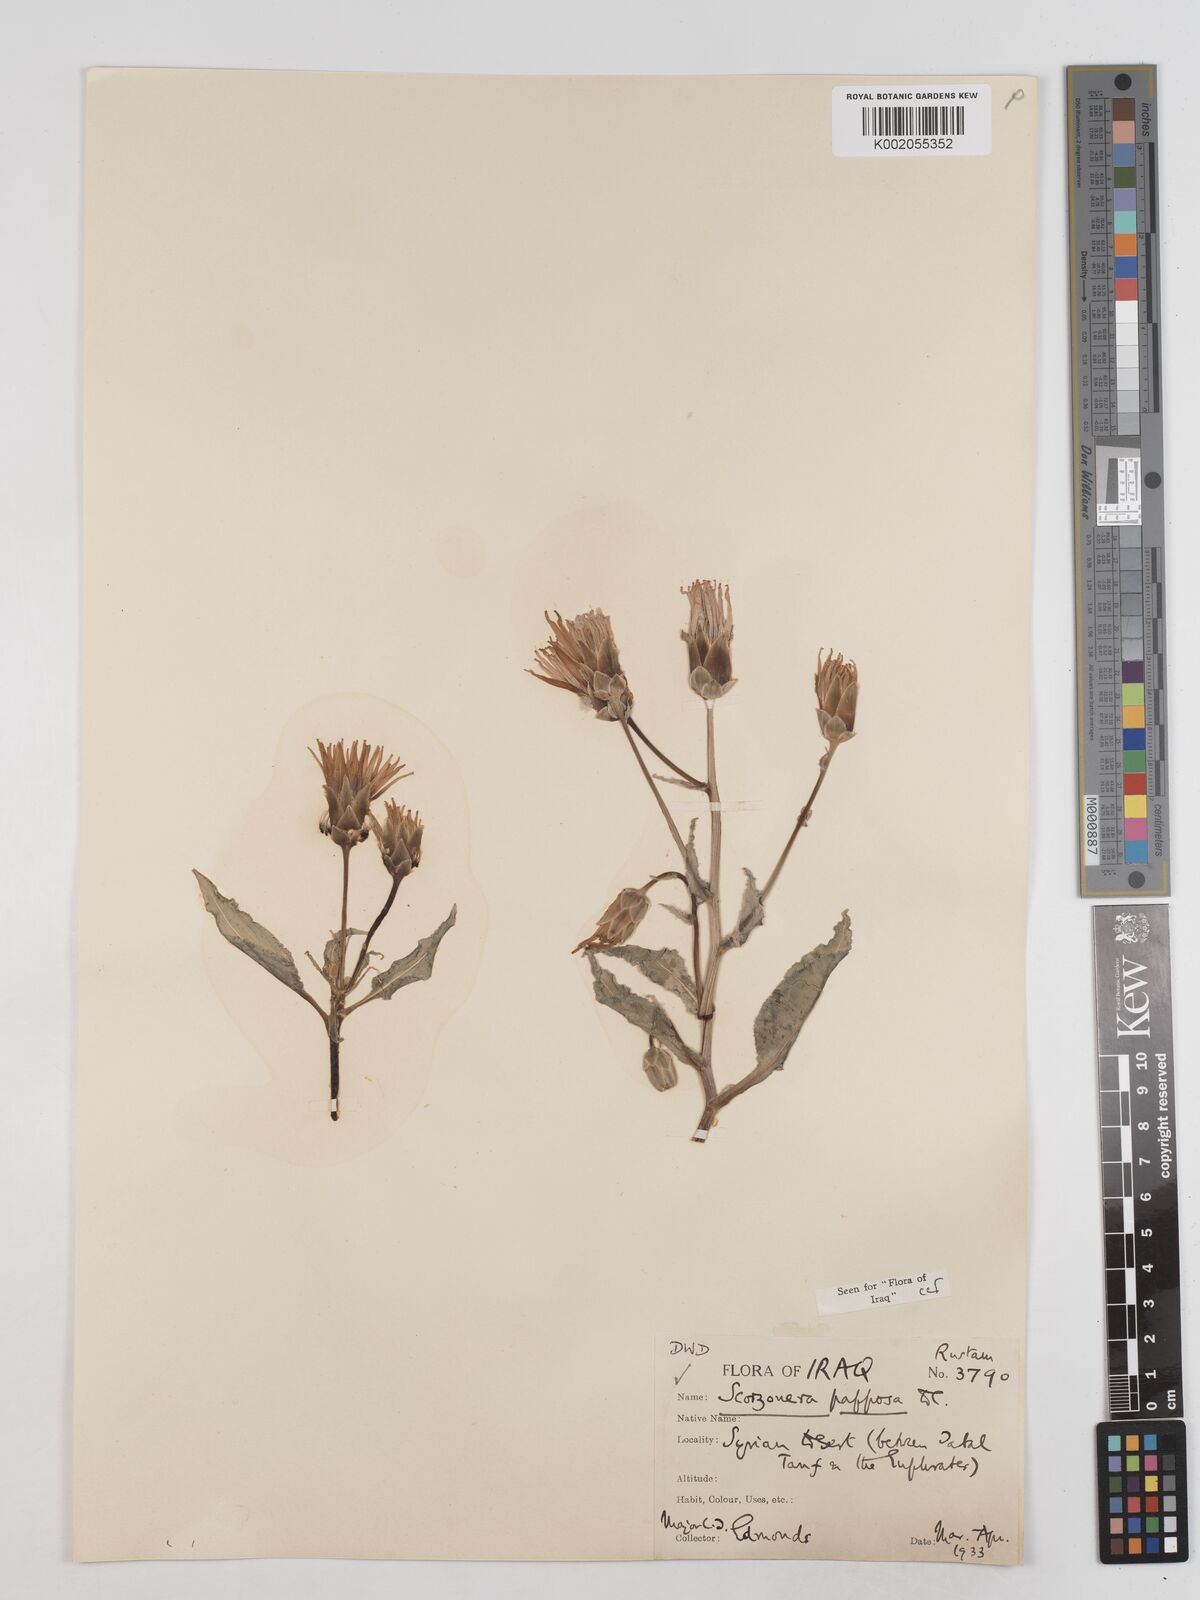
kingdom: Plantae
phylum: Tracheophyta
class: Magnoliopsida
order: Asterales
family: Asteraceae
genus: Pseudopodospermum
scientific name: Pseudopodospermum papposum
